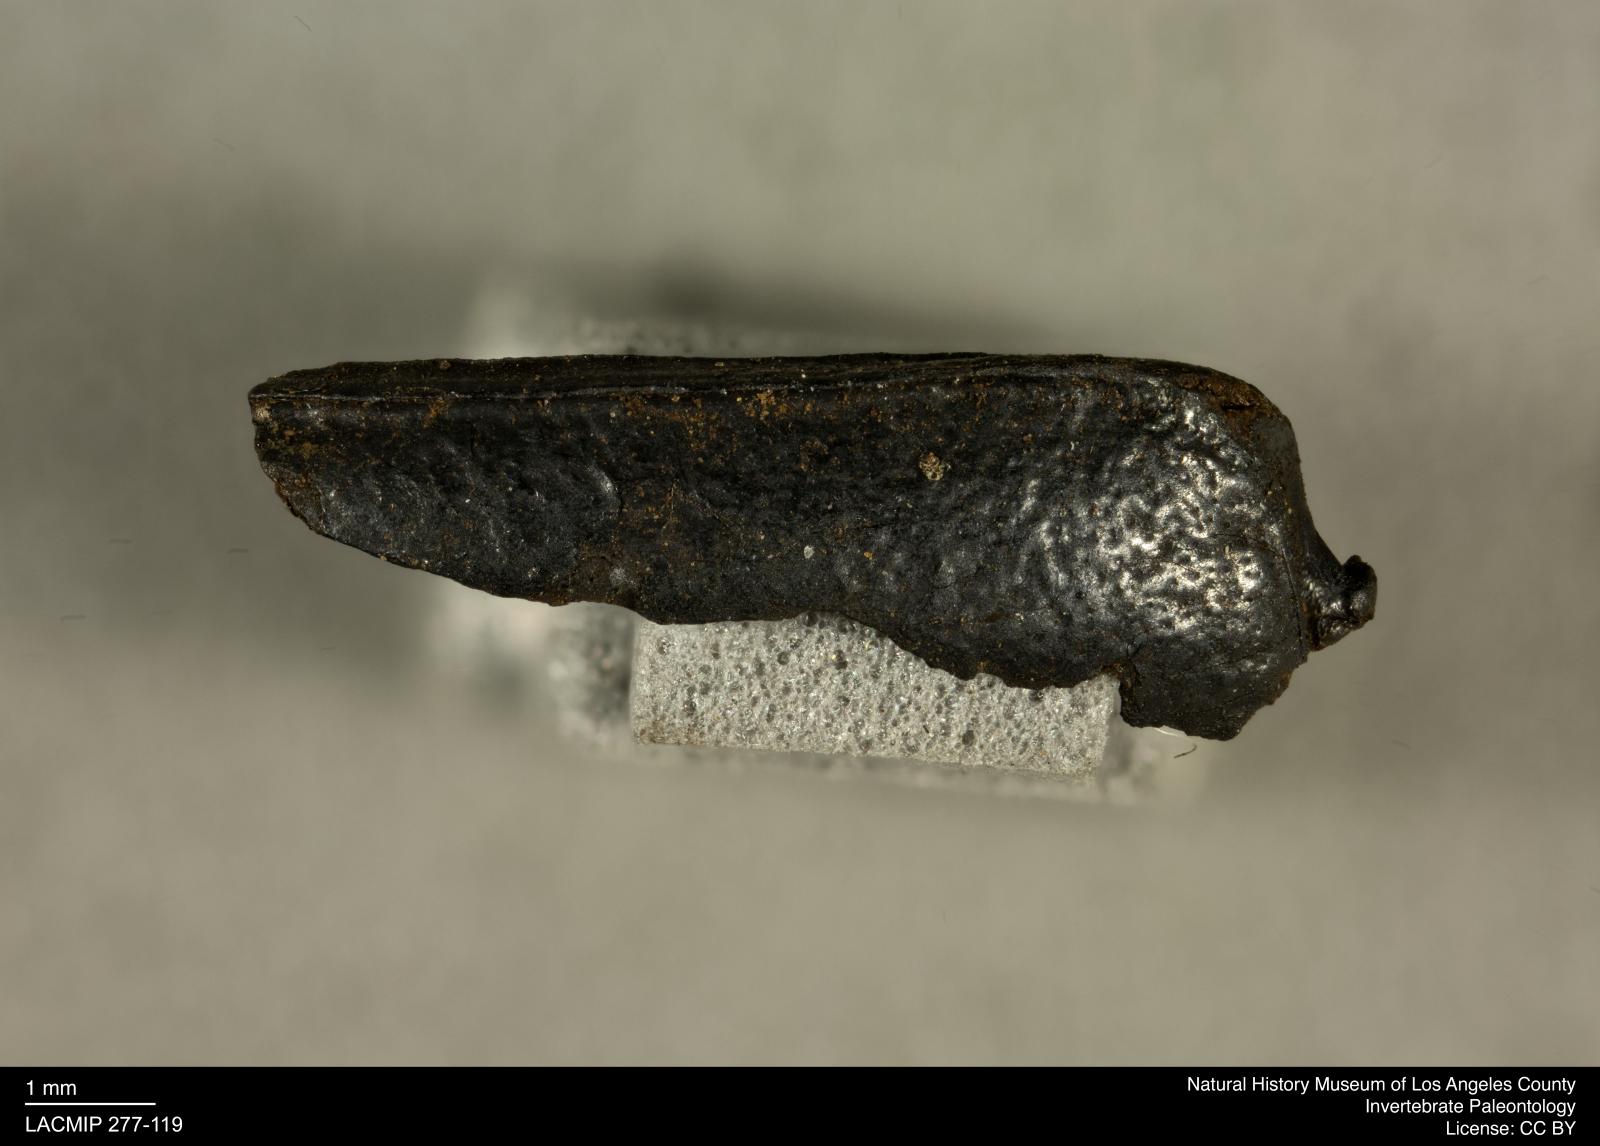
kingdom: Animalia
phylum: Arthropoda
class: Insecta
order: Coleoptera
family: Tenebrionidae
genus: Coniontis
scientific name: Coniontis abdominalis
